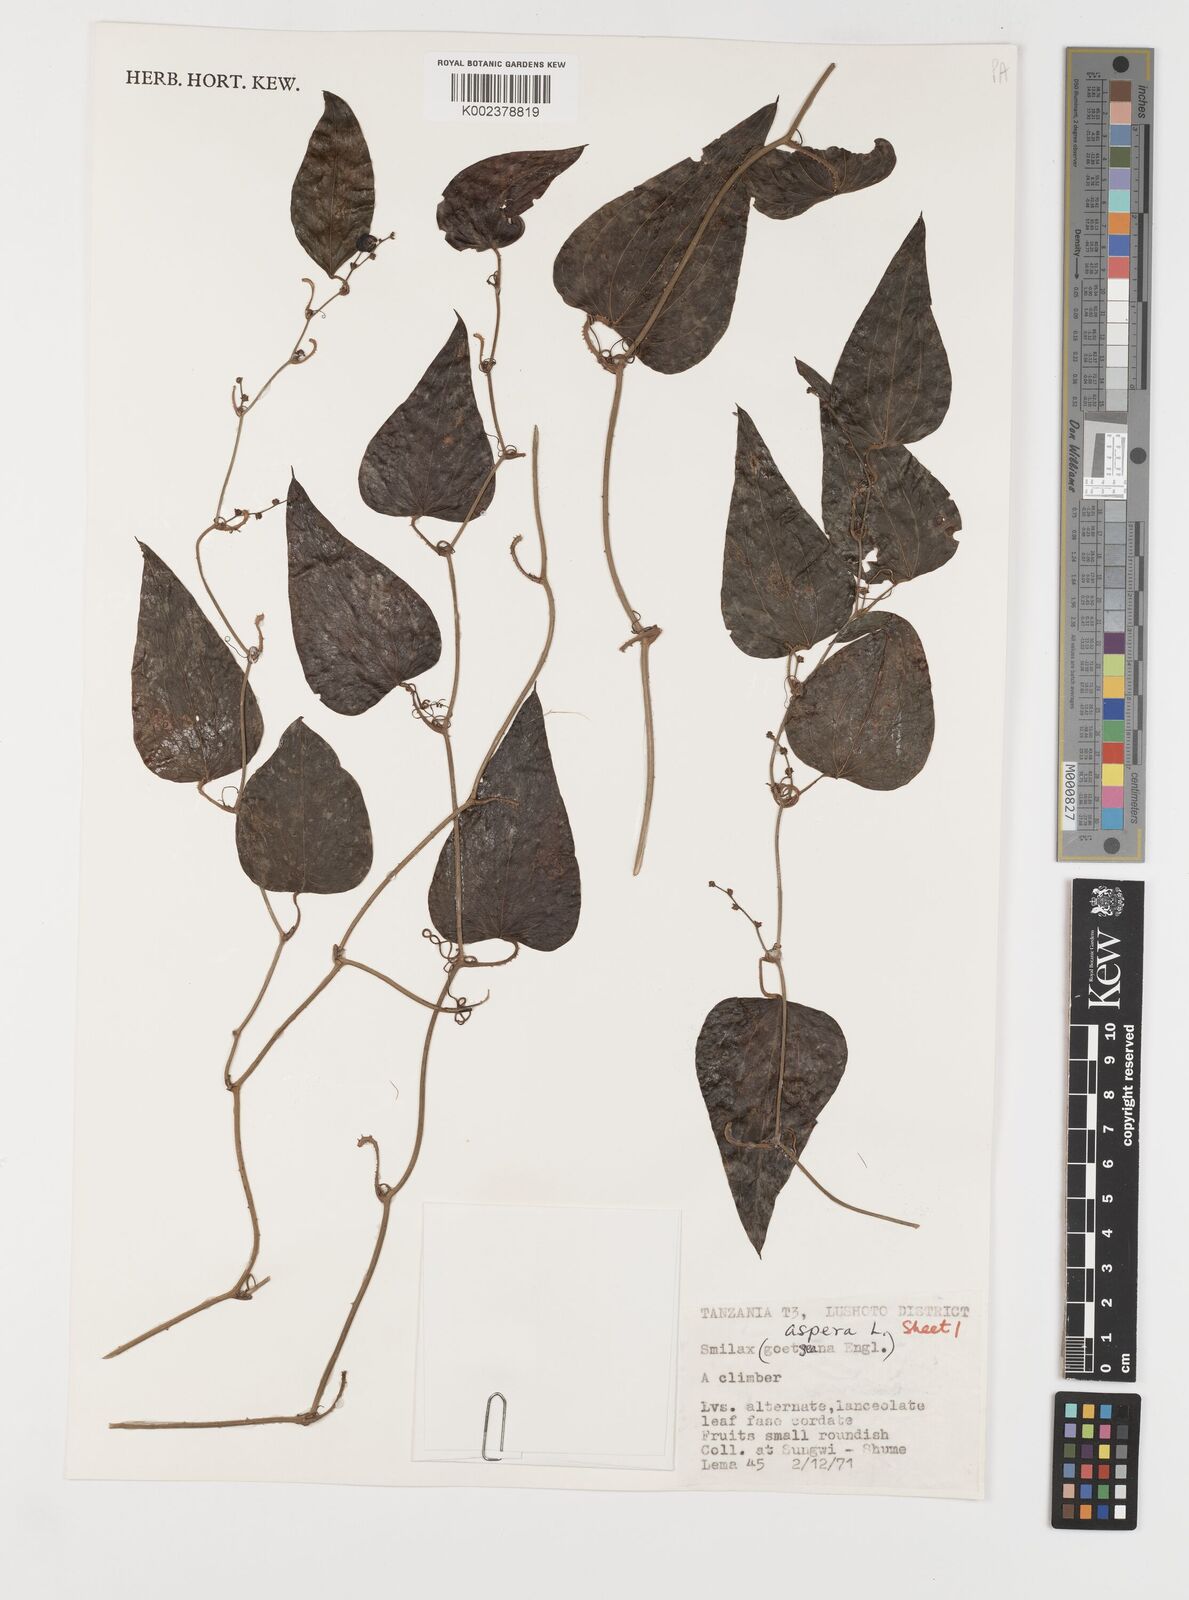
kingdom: Plantae
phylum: Tracheophyta
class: Liliopsida
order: Liliales
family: Smilacaceae
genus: Smilax
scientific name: Smilax aspera
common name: Common smilax
